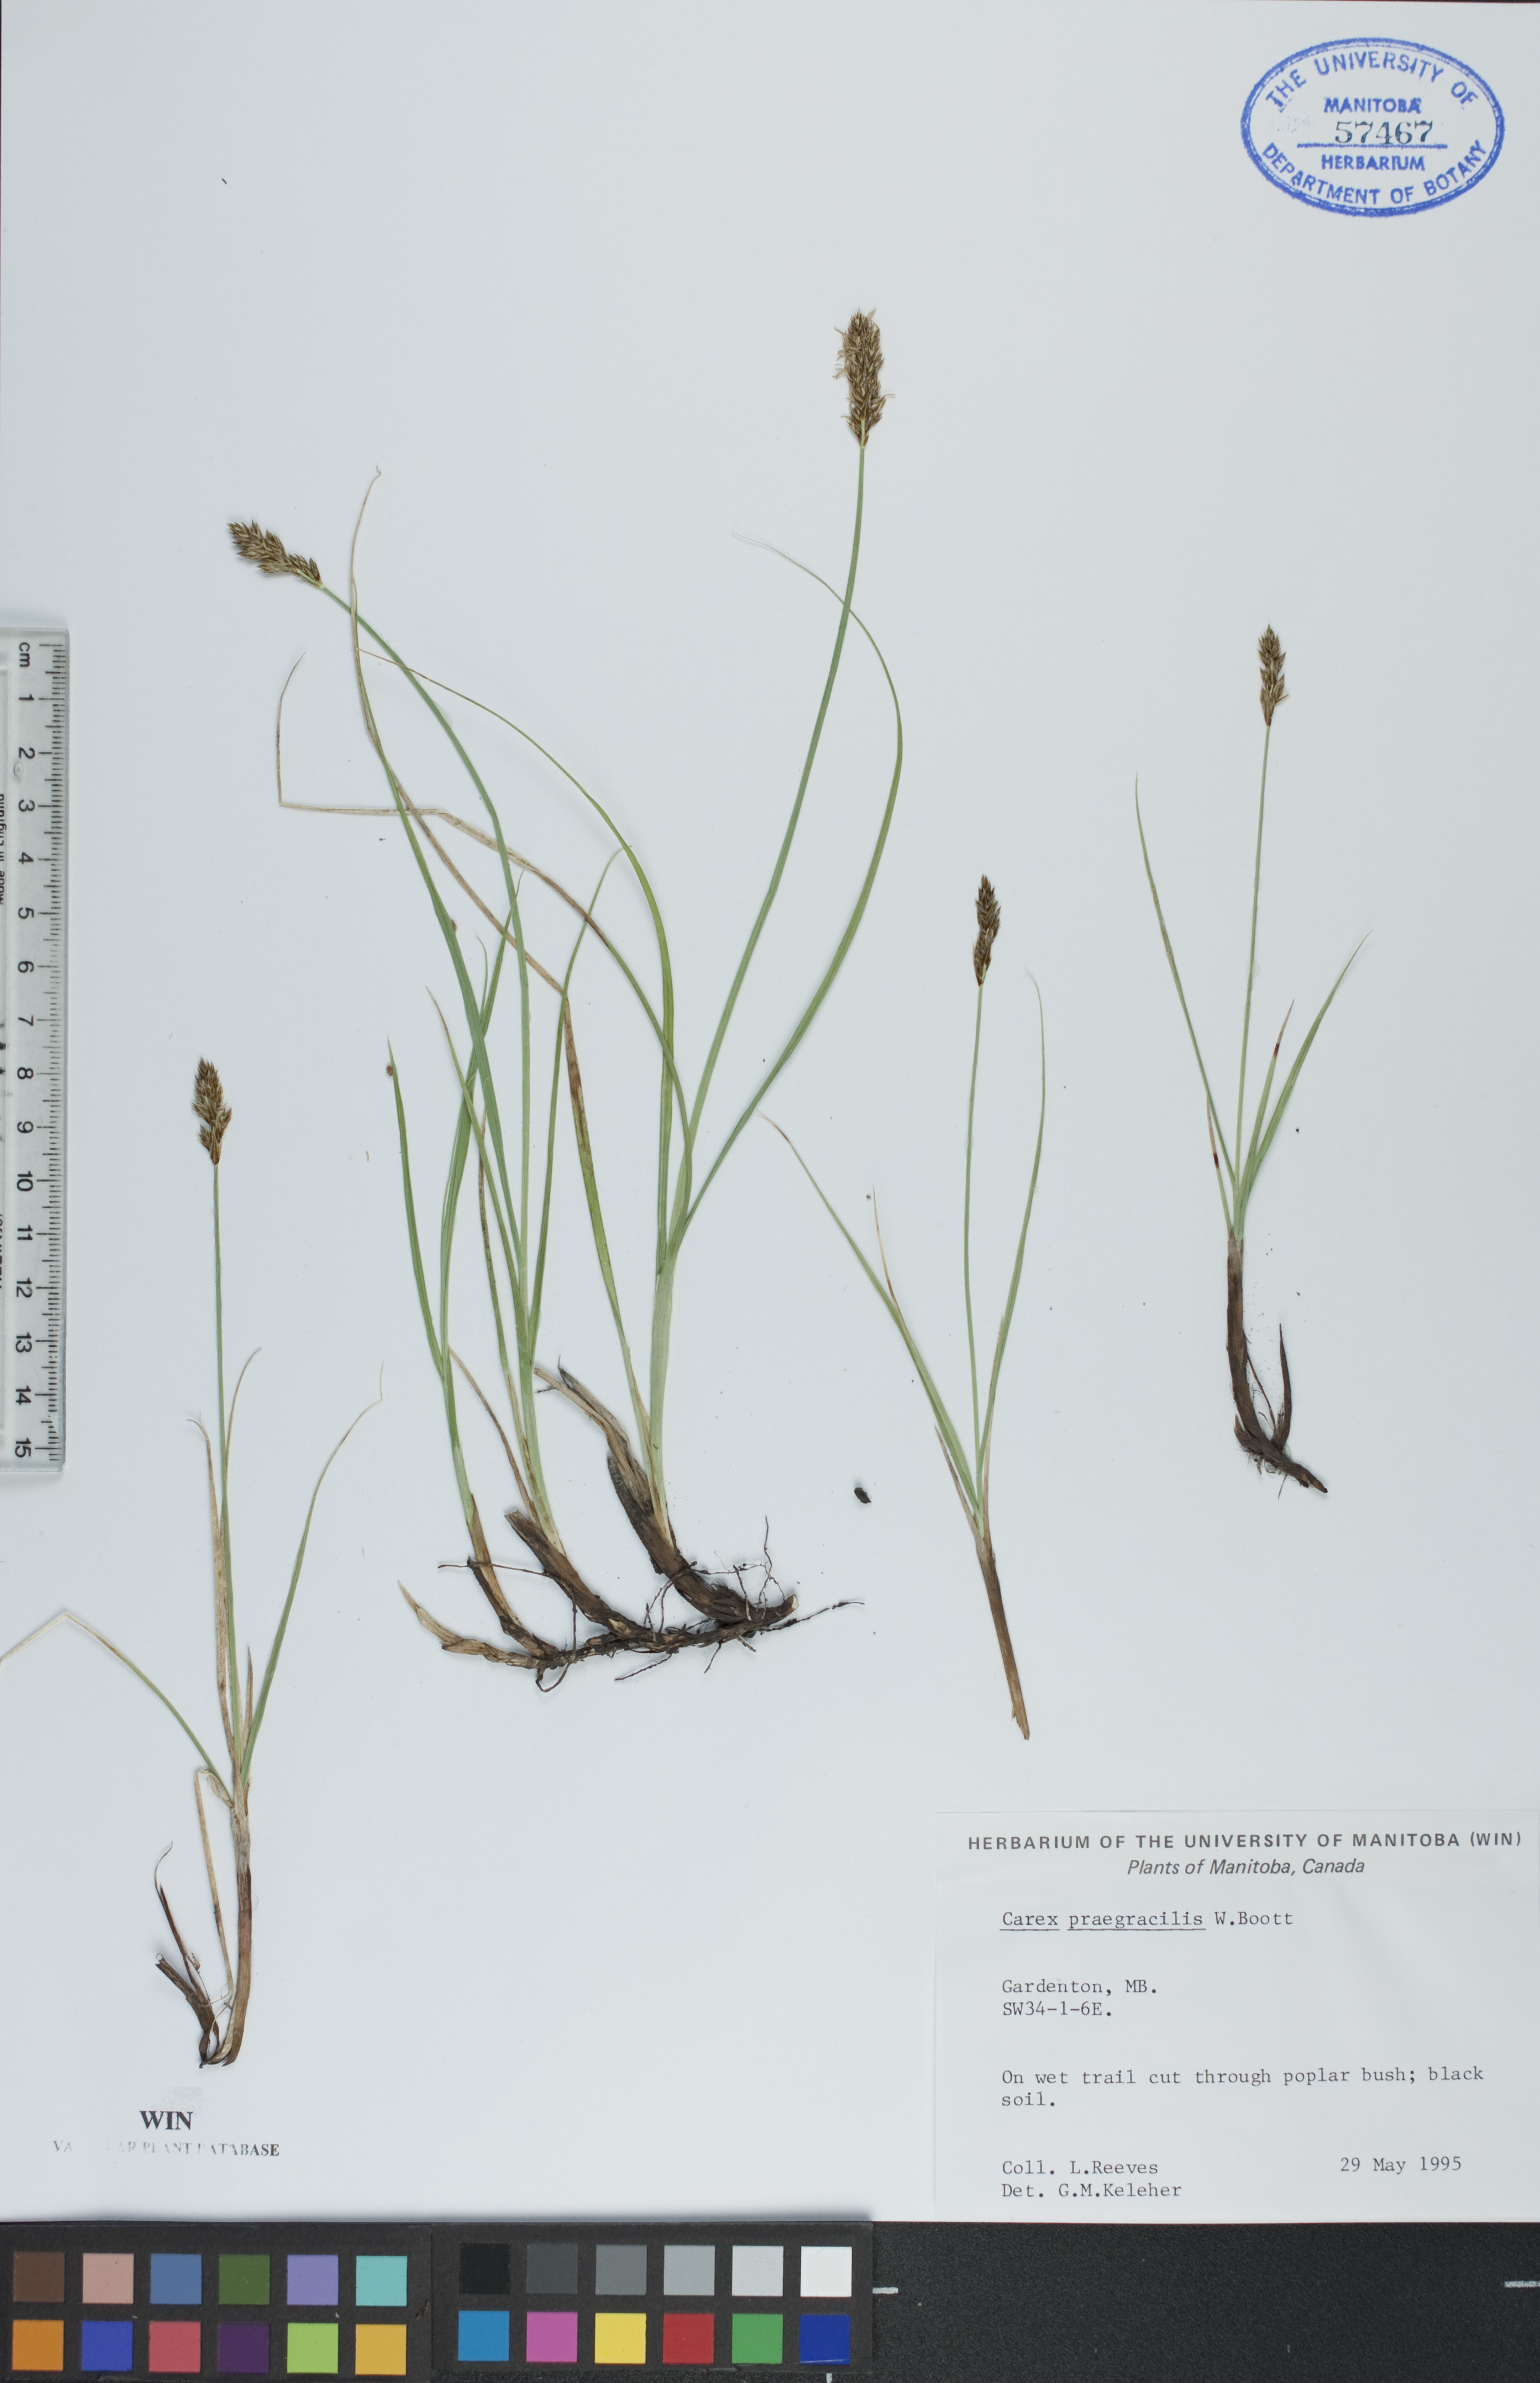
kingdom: Plantae
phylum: Tracheophyta
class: Liliopsida
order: Poales
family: Cyperaceae
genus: Carex
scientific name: Carex praegracilis
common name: Black creeper sedge
